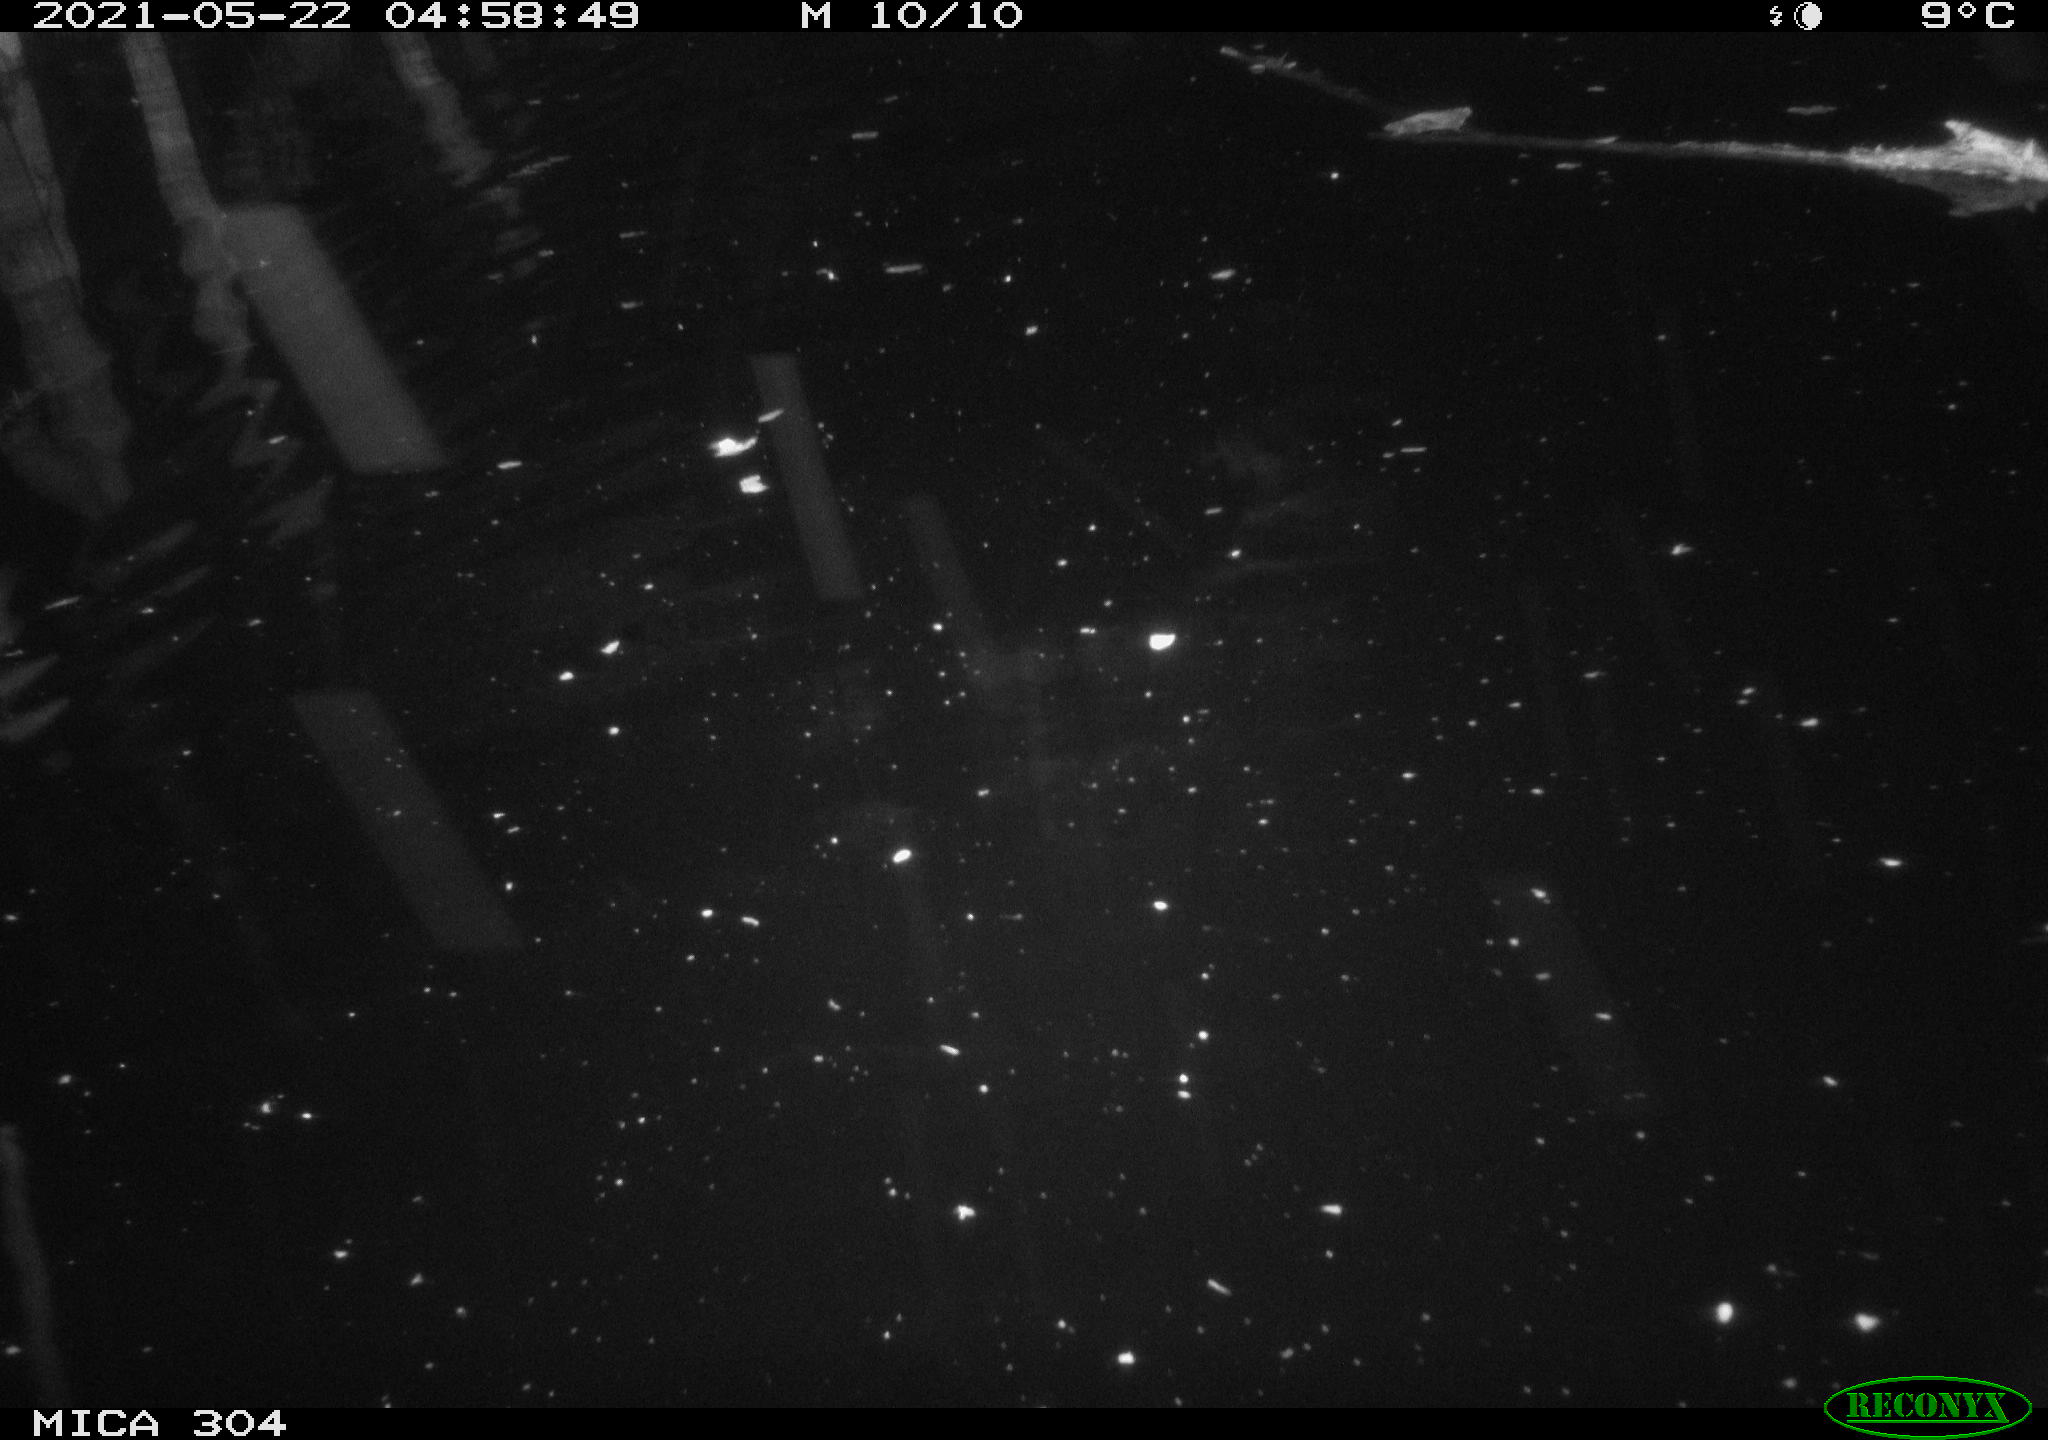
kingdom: Animalia
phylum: Chordata
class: Aves
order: Anseriformes
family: Anatidae
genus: Anas
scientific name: Anas platyrhynchos
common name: Mallard
